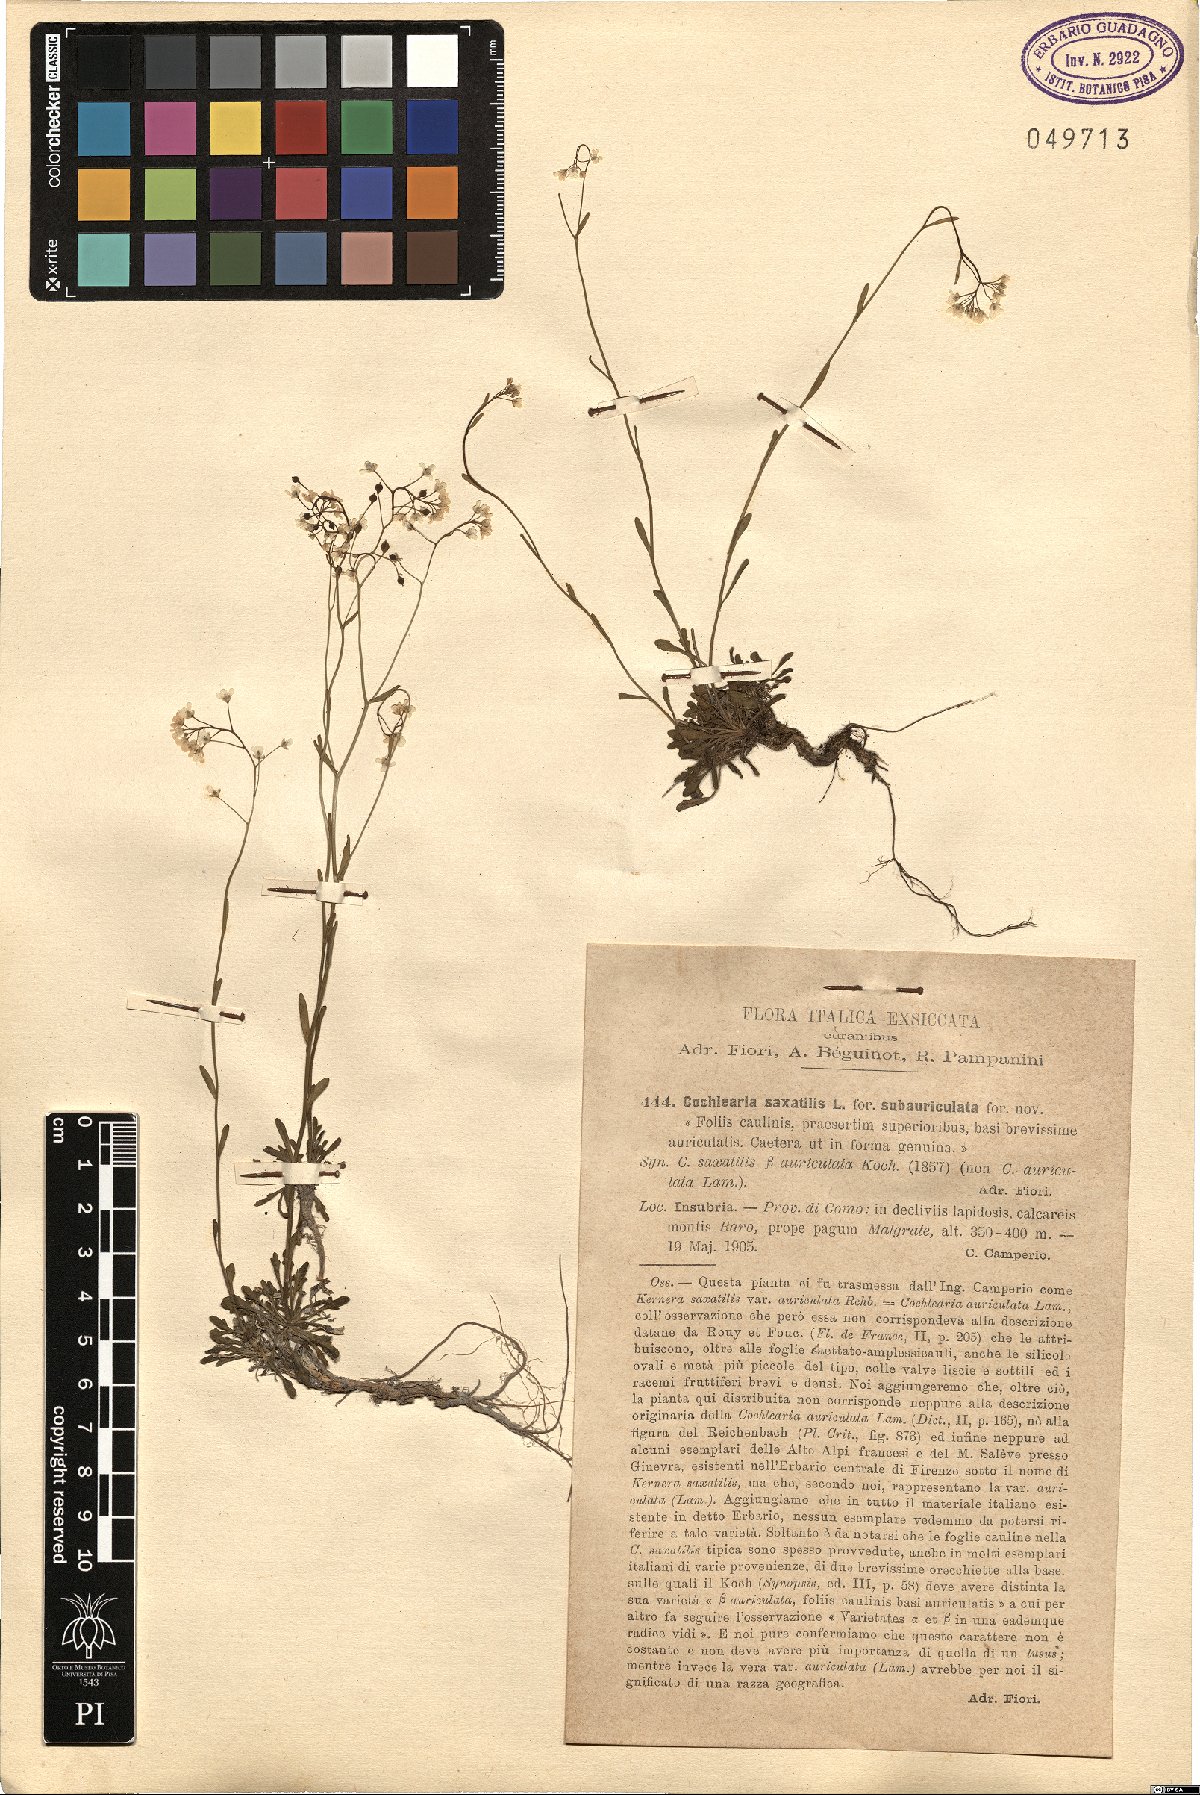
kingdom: Plantae
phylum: Tracheophyta
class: Magnoliopsida
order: Brassicales
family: Brassicaceae
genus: Kernera
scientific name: Kernera saxatilis
